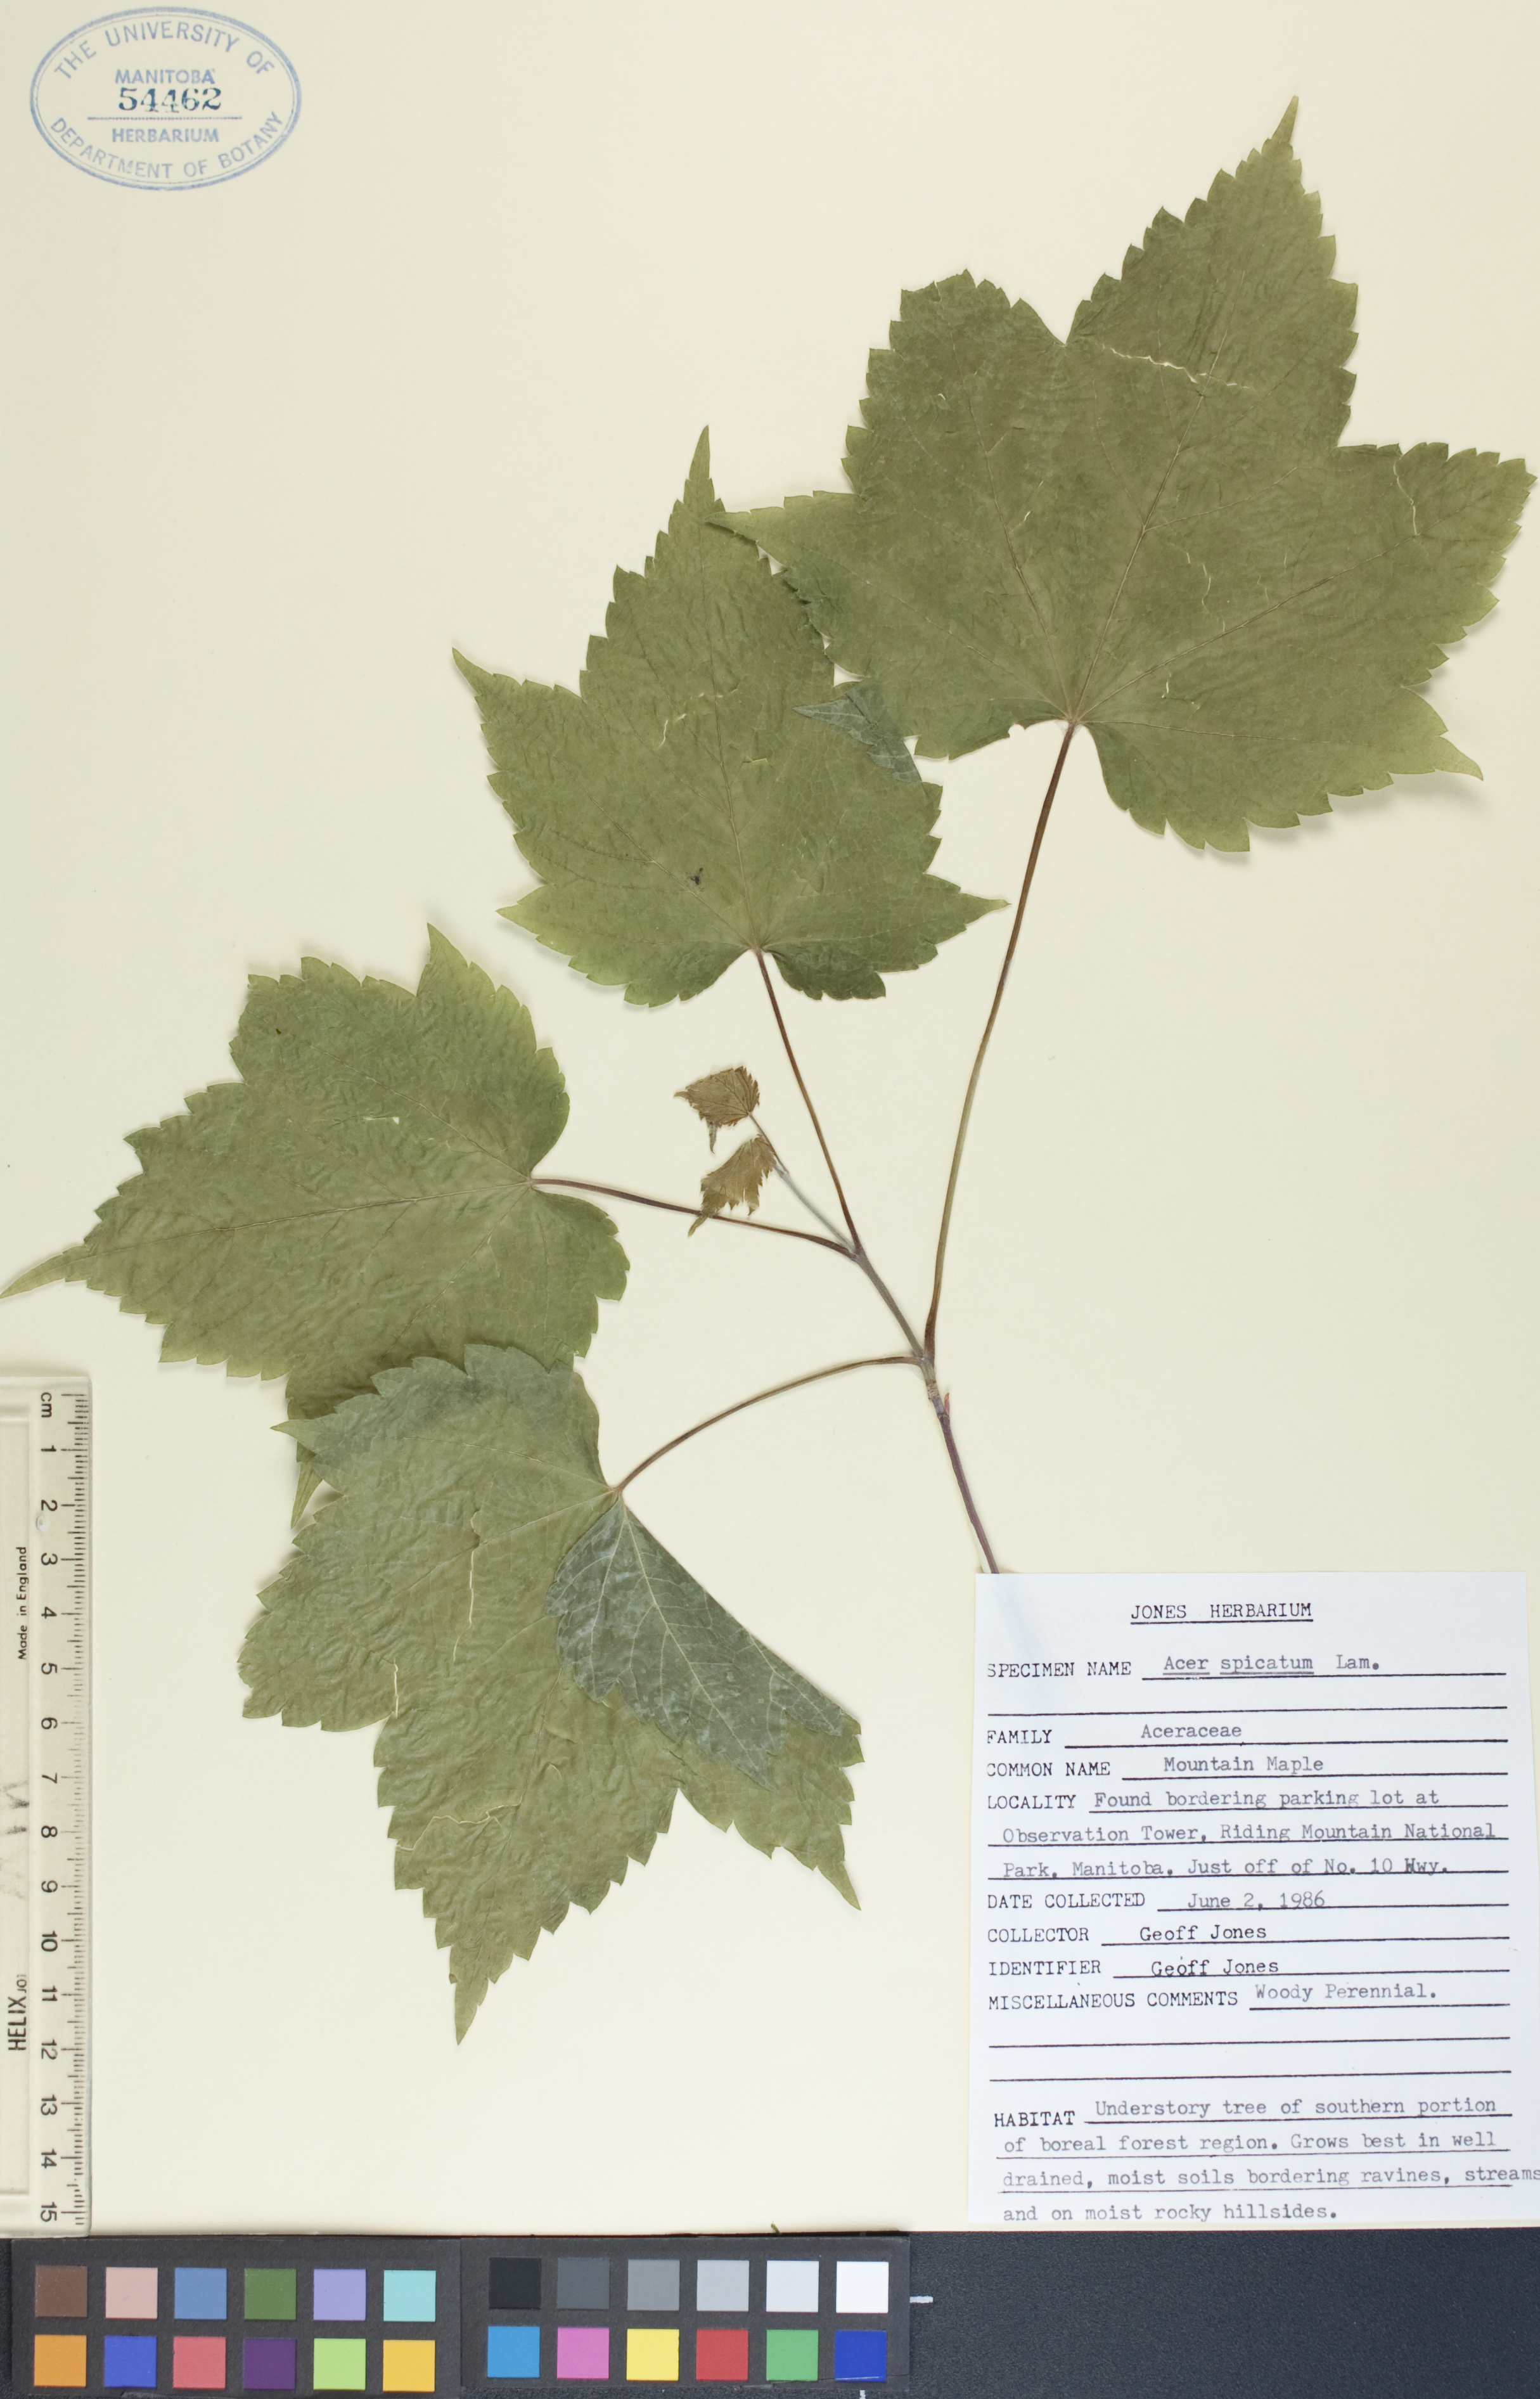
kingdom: Plantae
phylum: Tracheophyta
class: Magnoliopsida
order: Sapindales
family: Sapindaceae
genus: Acer
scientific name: Acer spicatum
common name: Mountain maple
